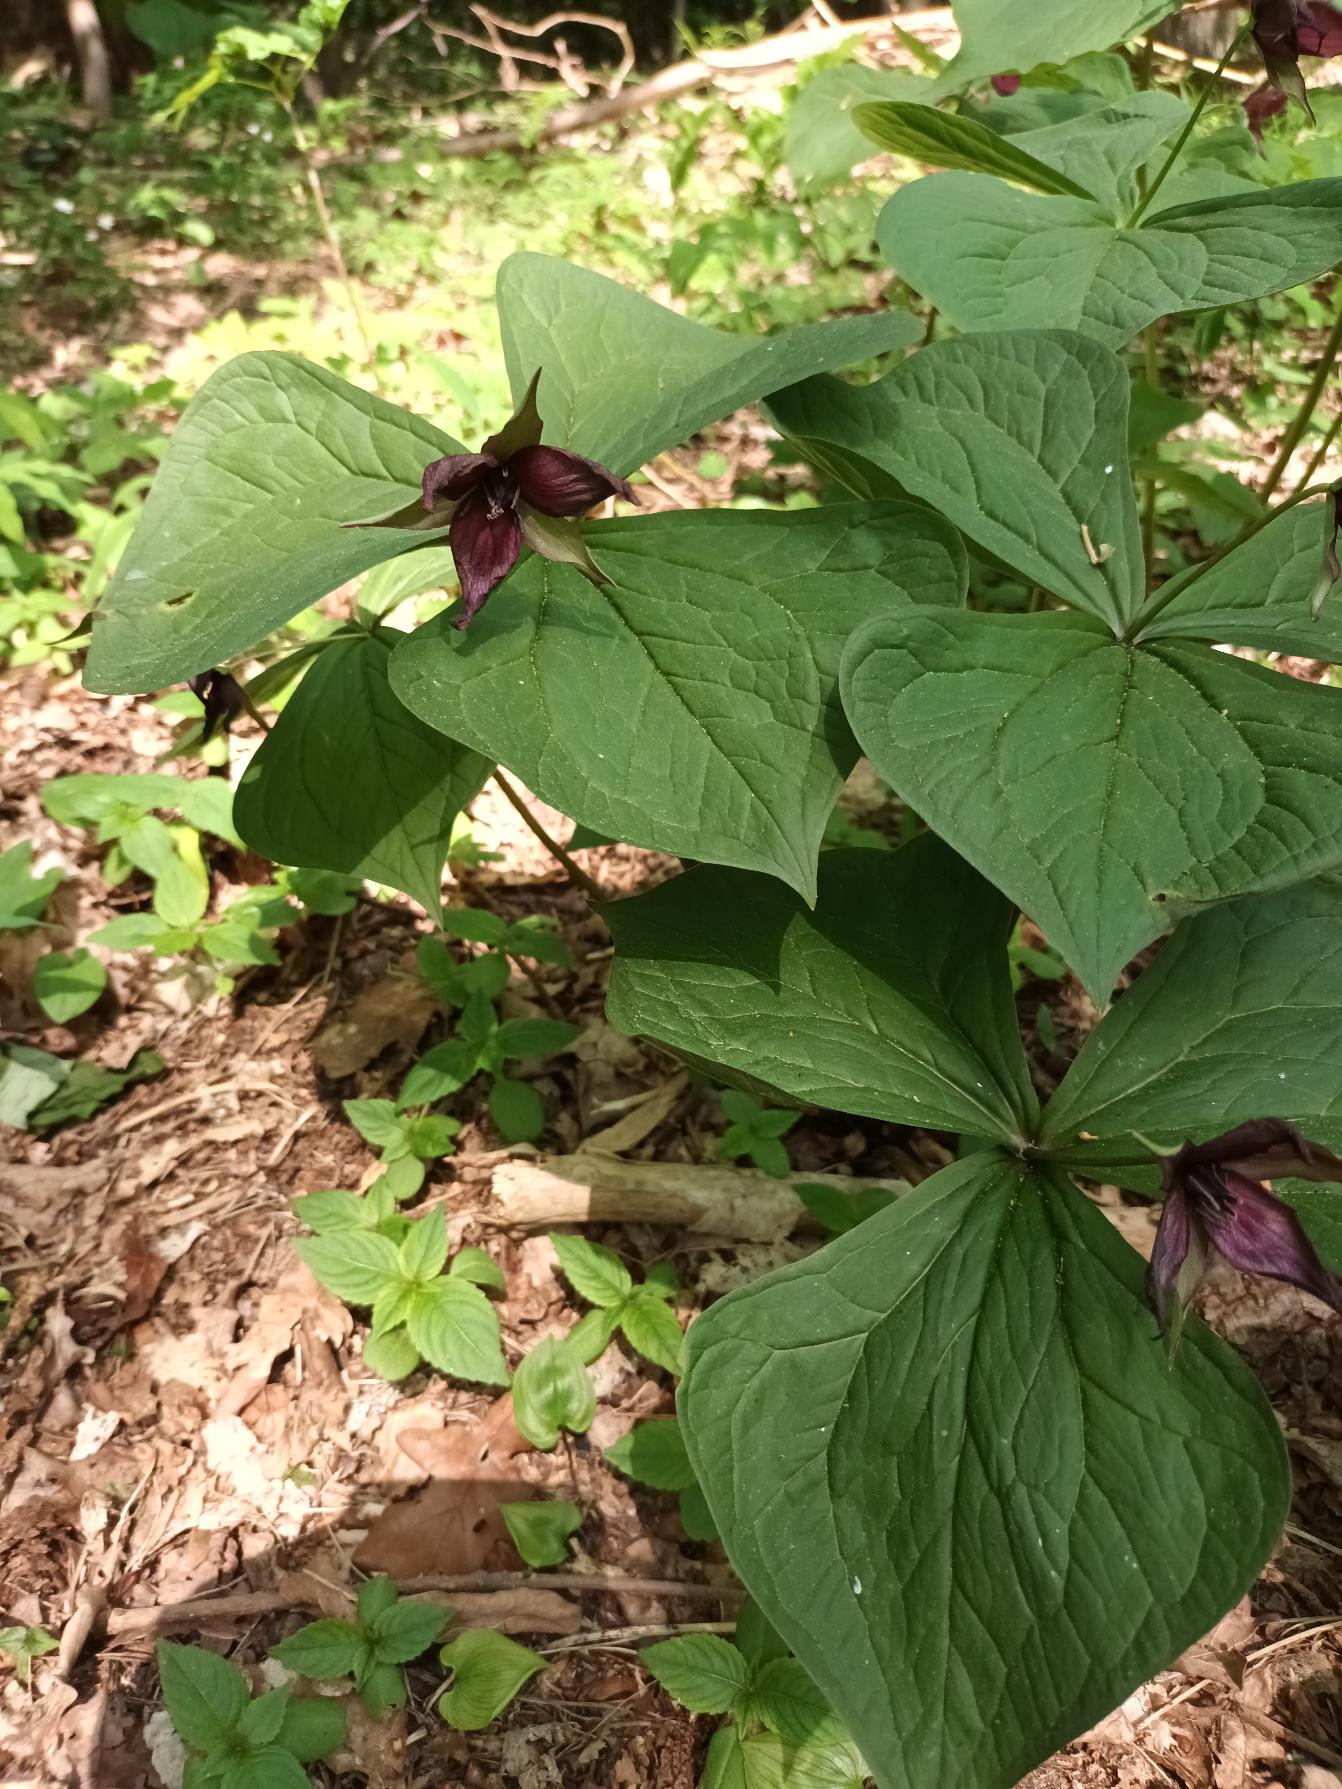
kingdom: Plantae
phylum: Tracheophyta
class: Liliopsida
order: Liliales
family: Melanthiaceae
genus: Trillium
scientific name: Trillium erectum
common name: Treblad
